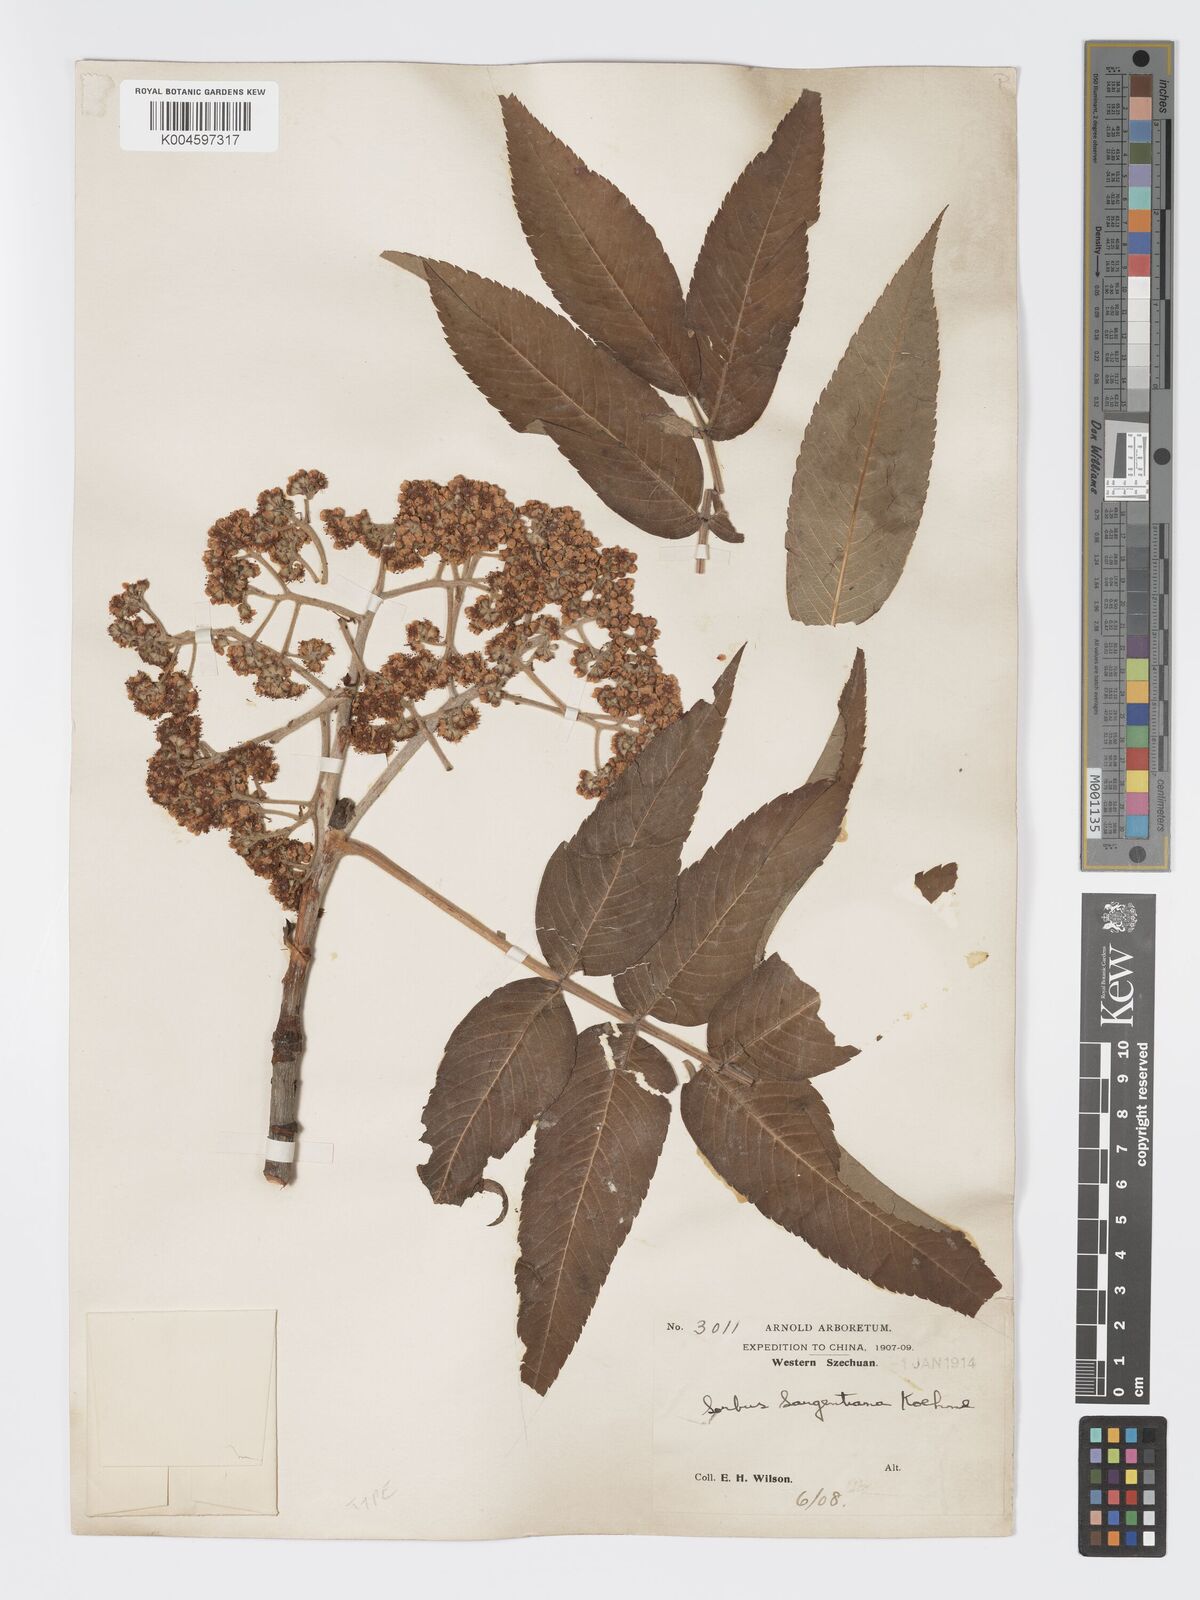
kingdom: Plantae
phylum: Tracheophyta
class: Magnoliopsida
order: Rosales
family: Rosaceae
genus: Sorbus
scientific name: Sorbus sargentiana
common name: Sargent's rowan
